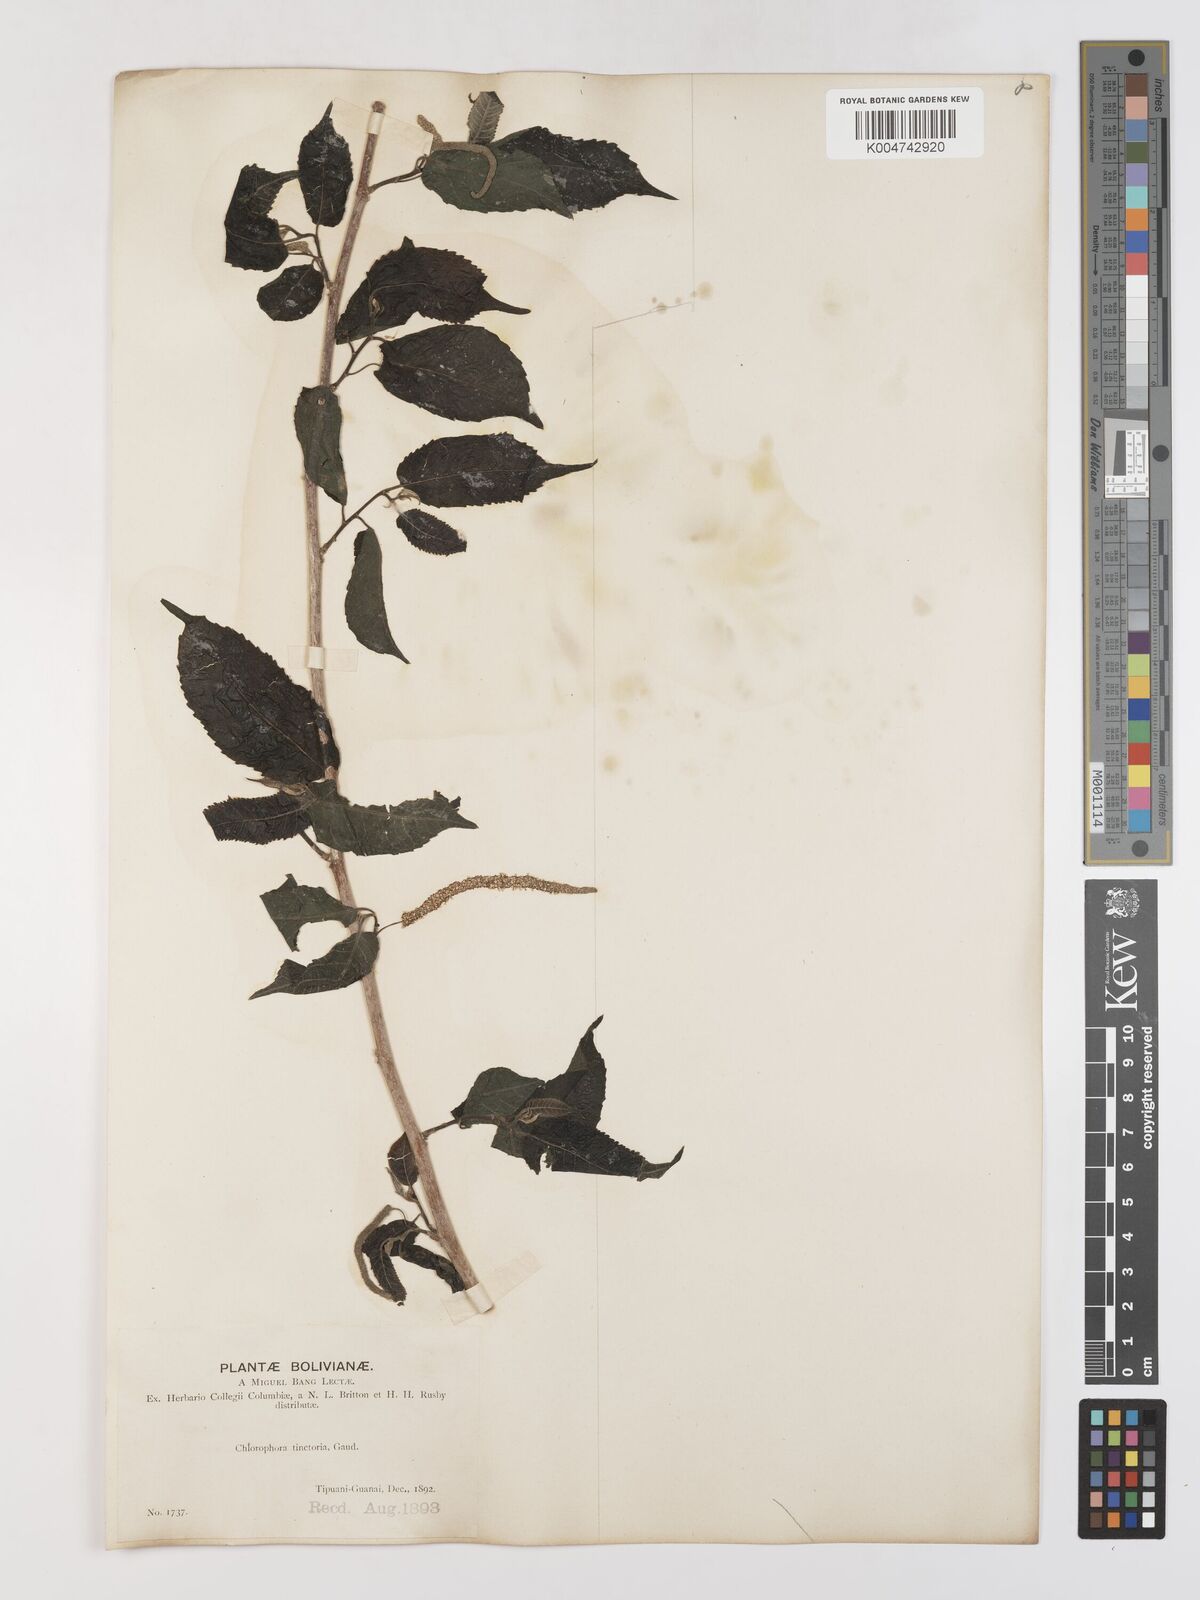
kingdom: Plantae
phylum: Tracheophyta
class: Magnoliopsida
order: Rosales
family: Moraceae
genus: Maclura
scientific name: Maclura tinctoria
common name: Old fustic
